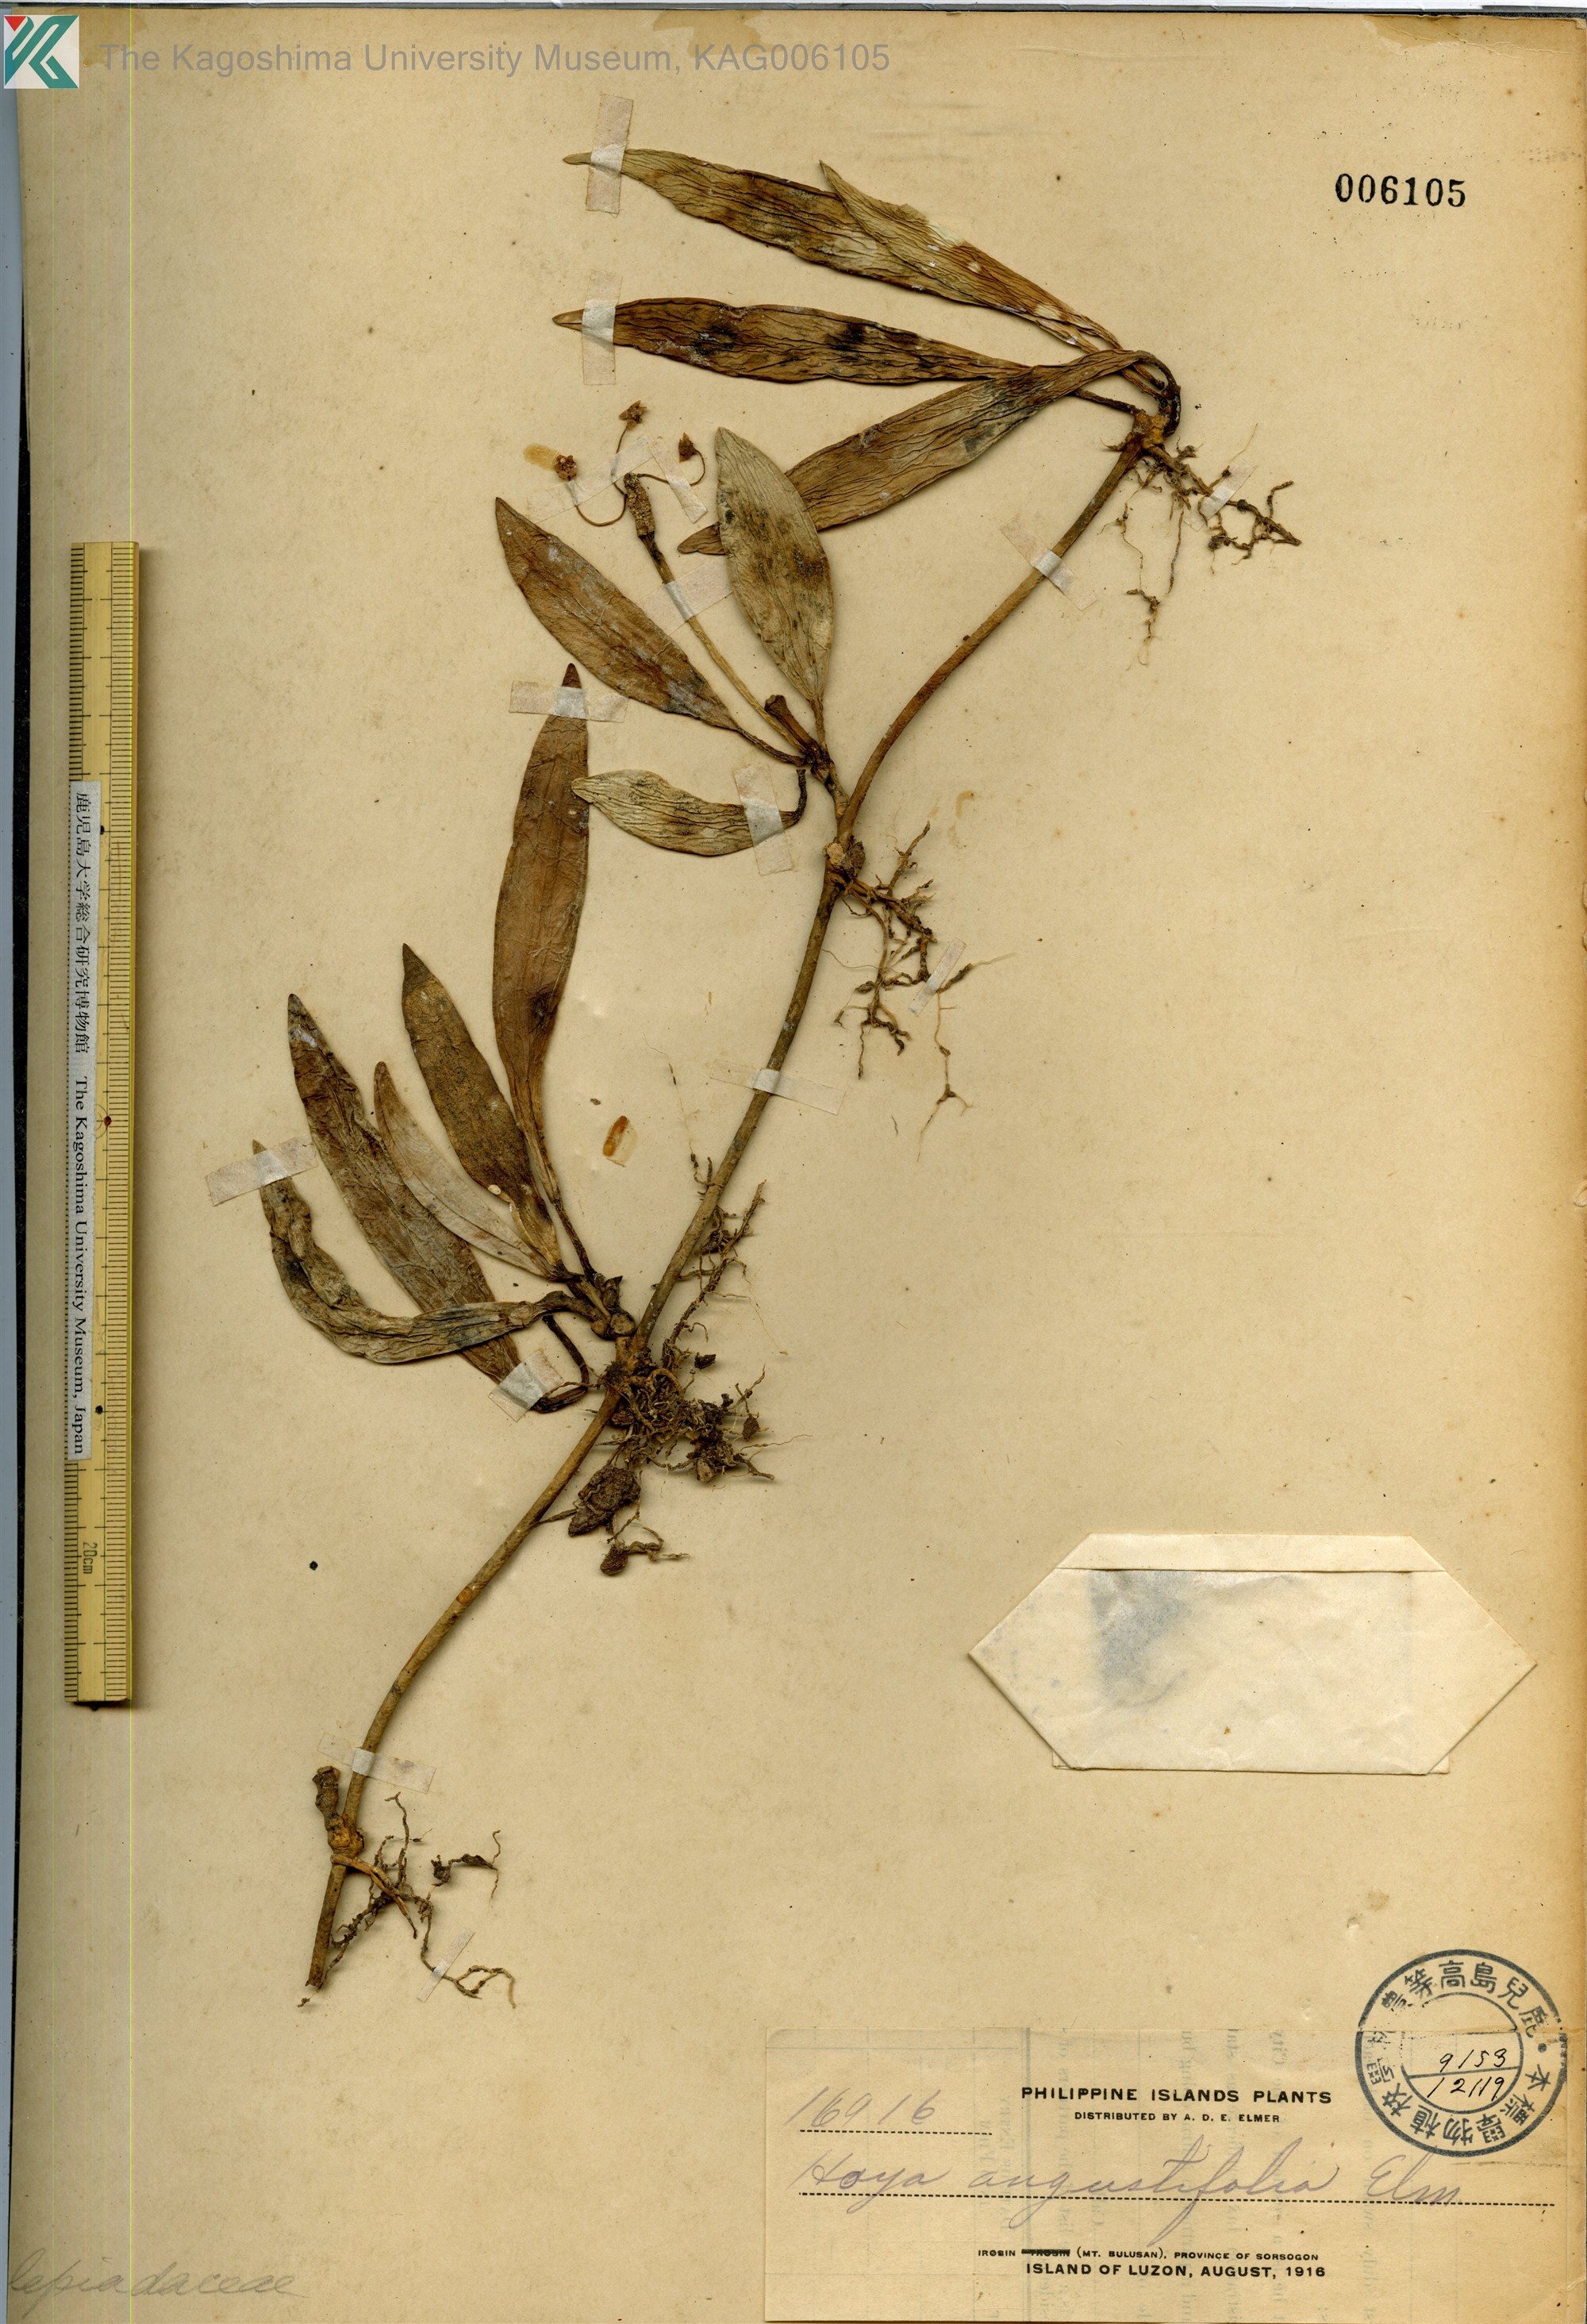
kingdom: Plantae
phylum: Tracheophyta
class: Magnoliopsida
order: Gentianales
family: Apocynaceae
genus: Hoya
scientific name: Hoya
